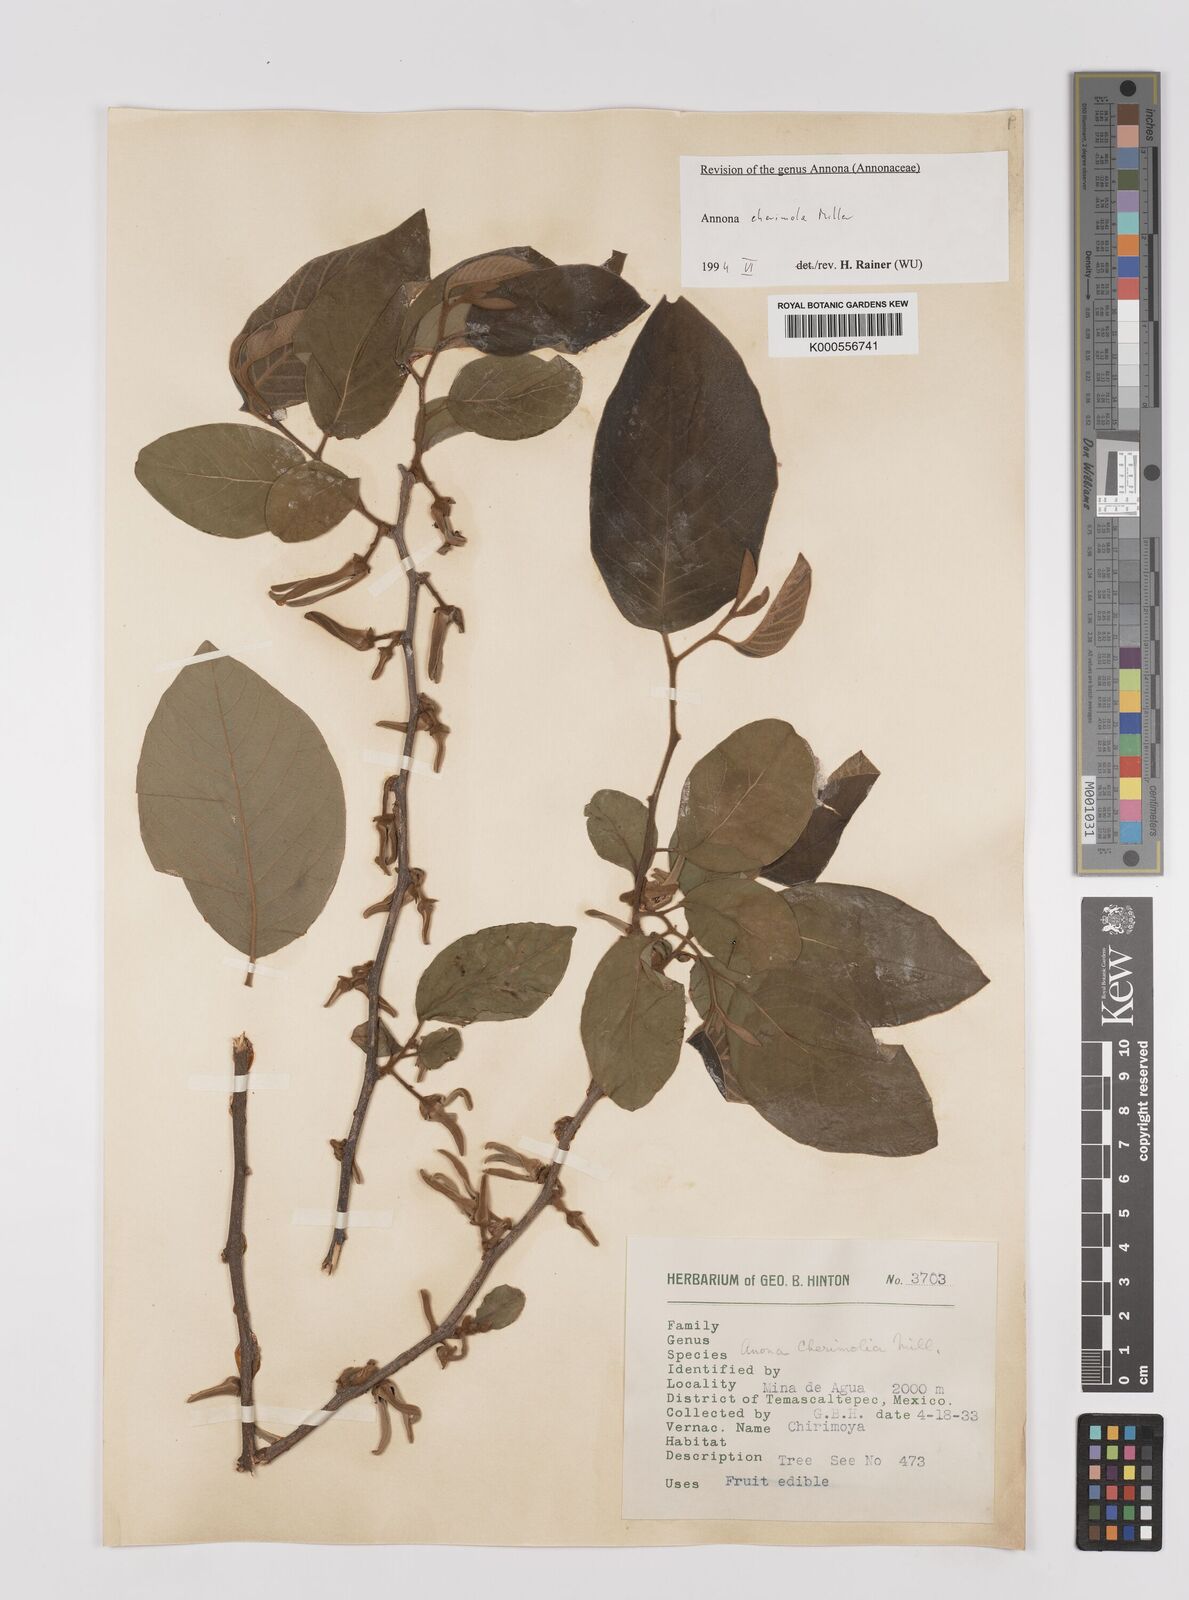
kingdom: Plantae
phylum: Tracheophyta
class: Magnoliopsida
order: Magnoliales
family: Annonaceae
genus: Annona
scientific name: Annona cherimola
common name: Cherimoya
